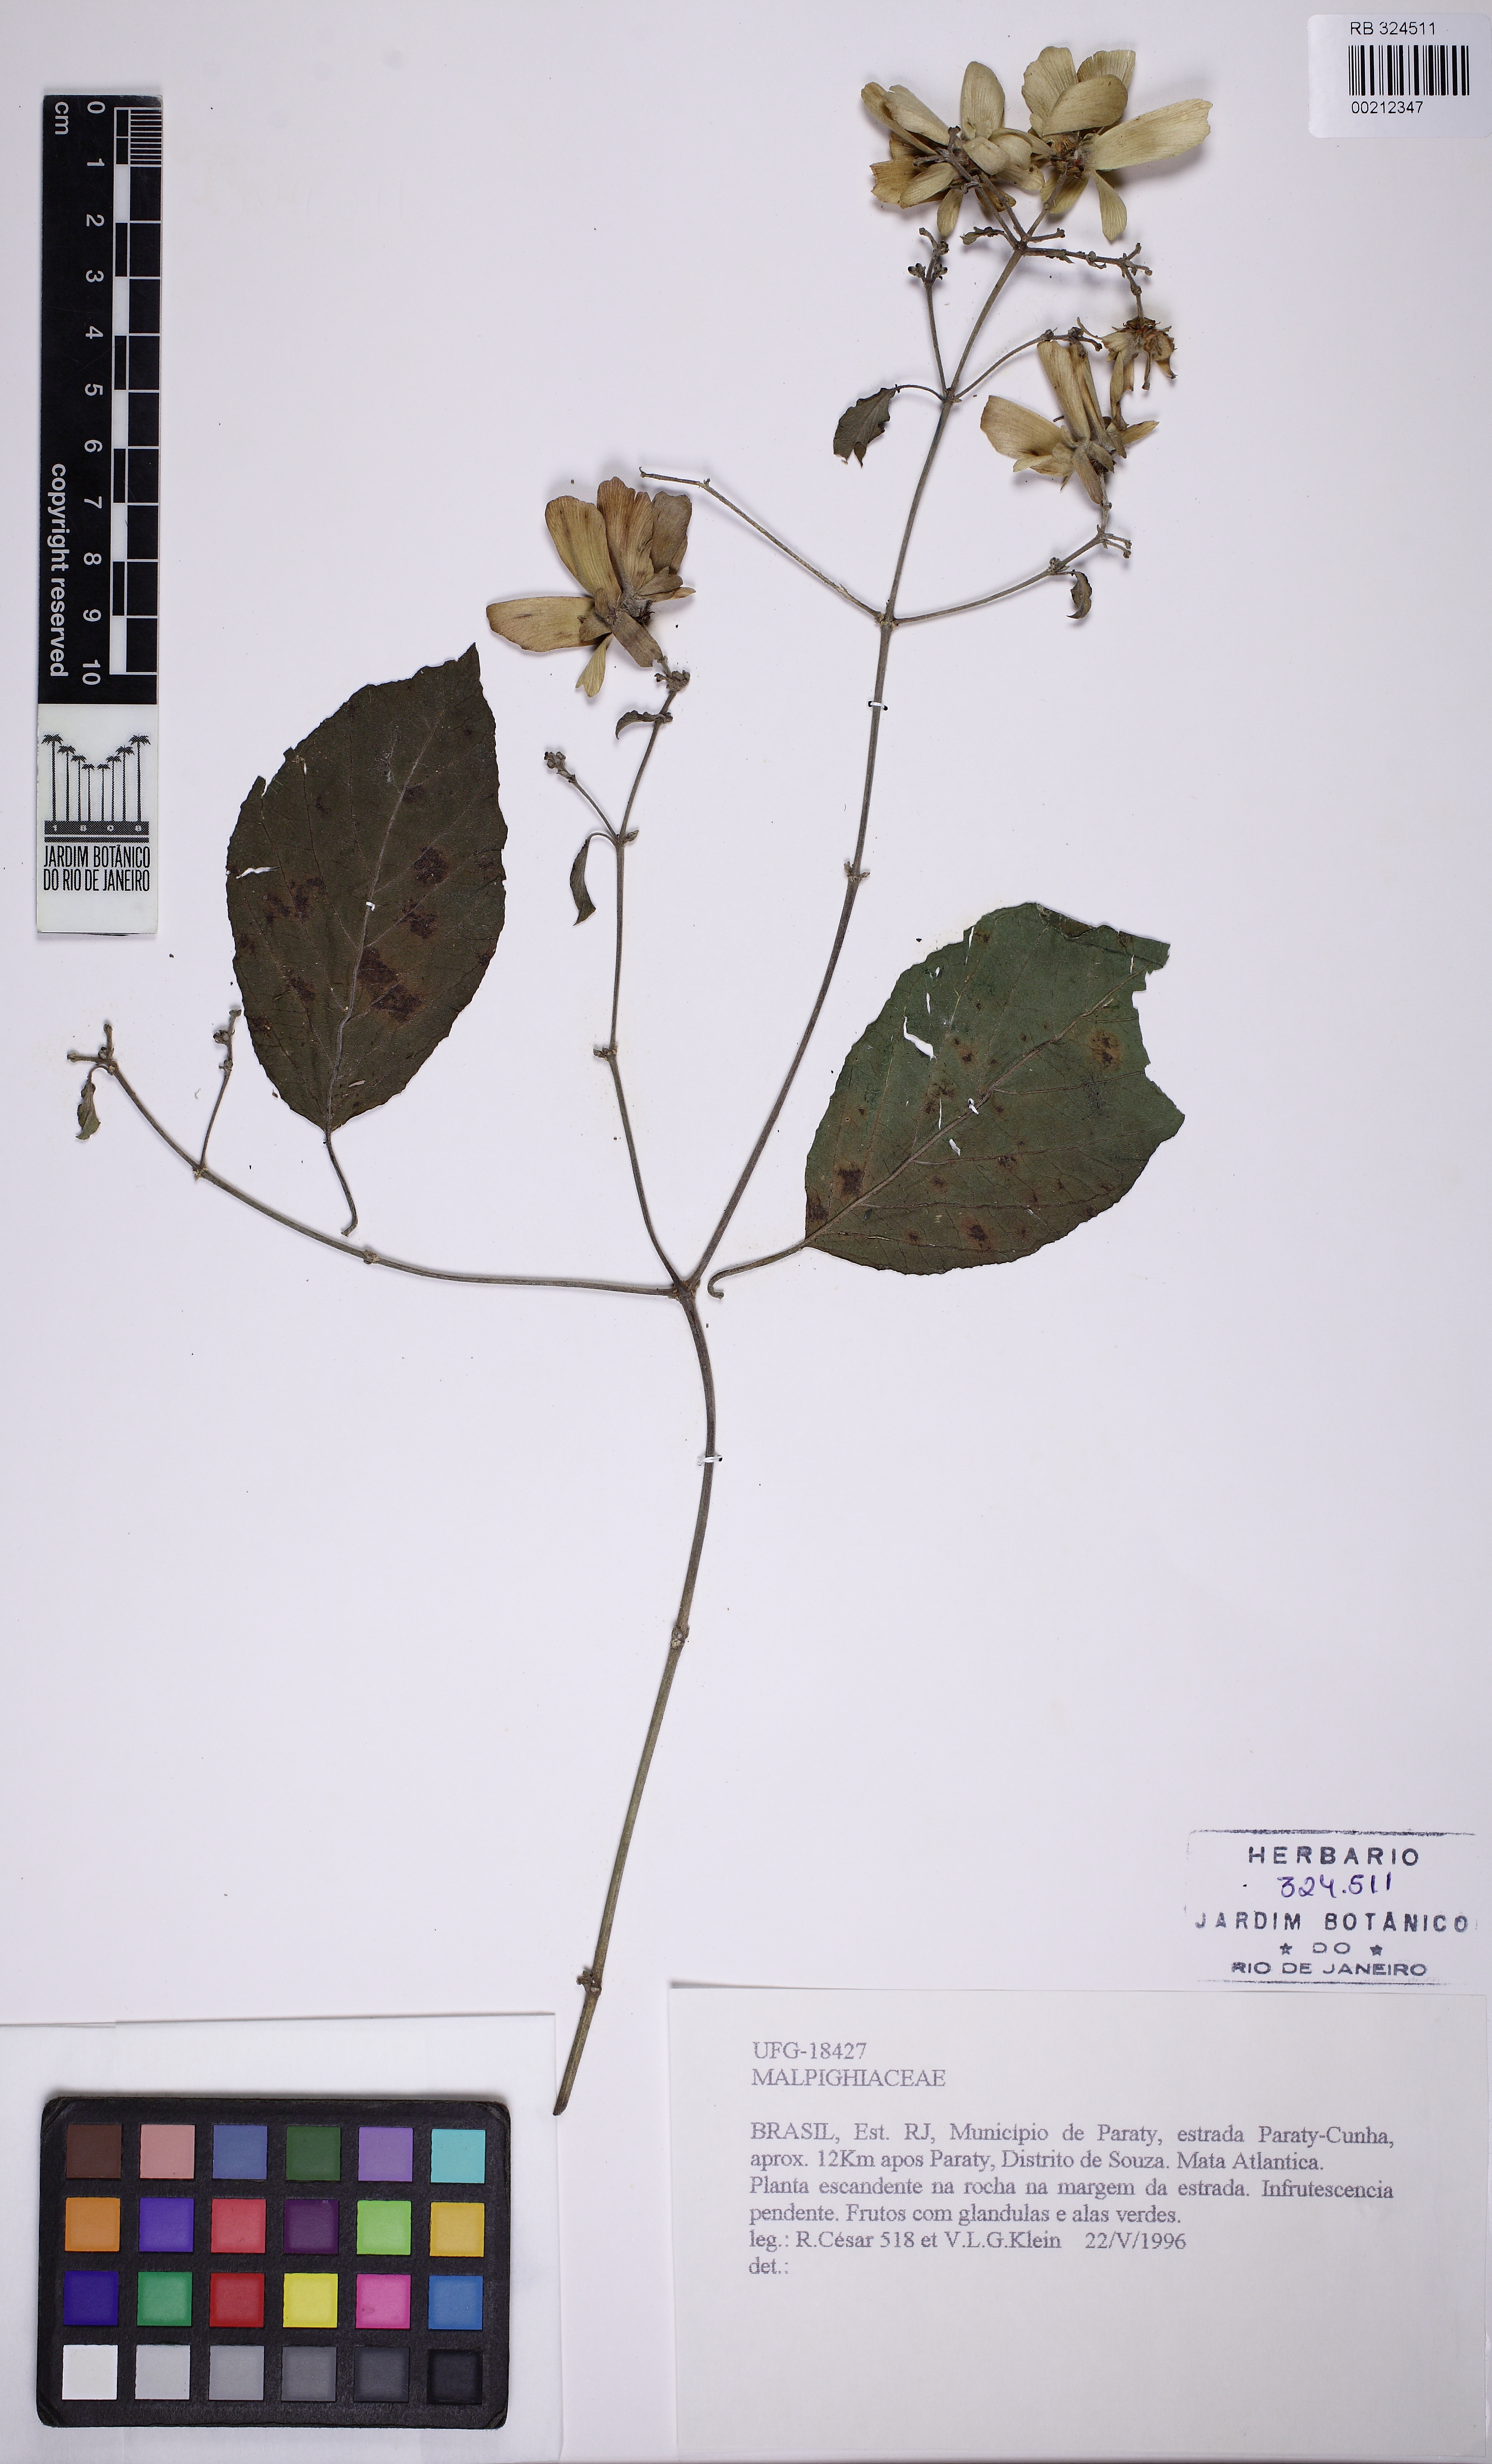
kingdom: Plantae
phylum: Tracheophyta
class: Magnoliopsida
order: Malpighiales
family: Malpighiaceae
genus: Tetrapterys
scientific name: Tetrapterys
